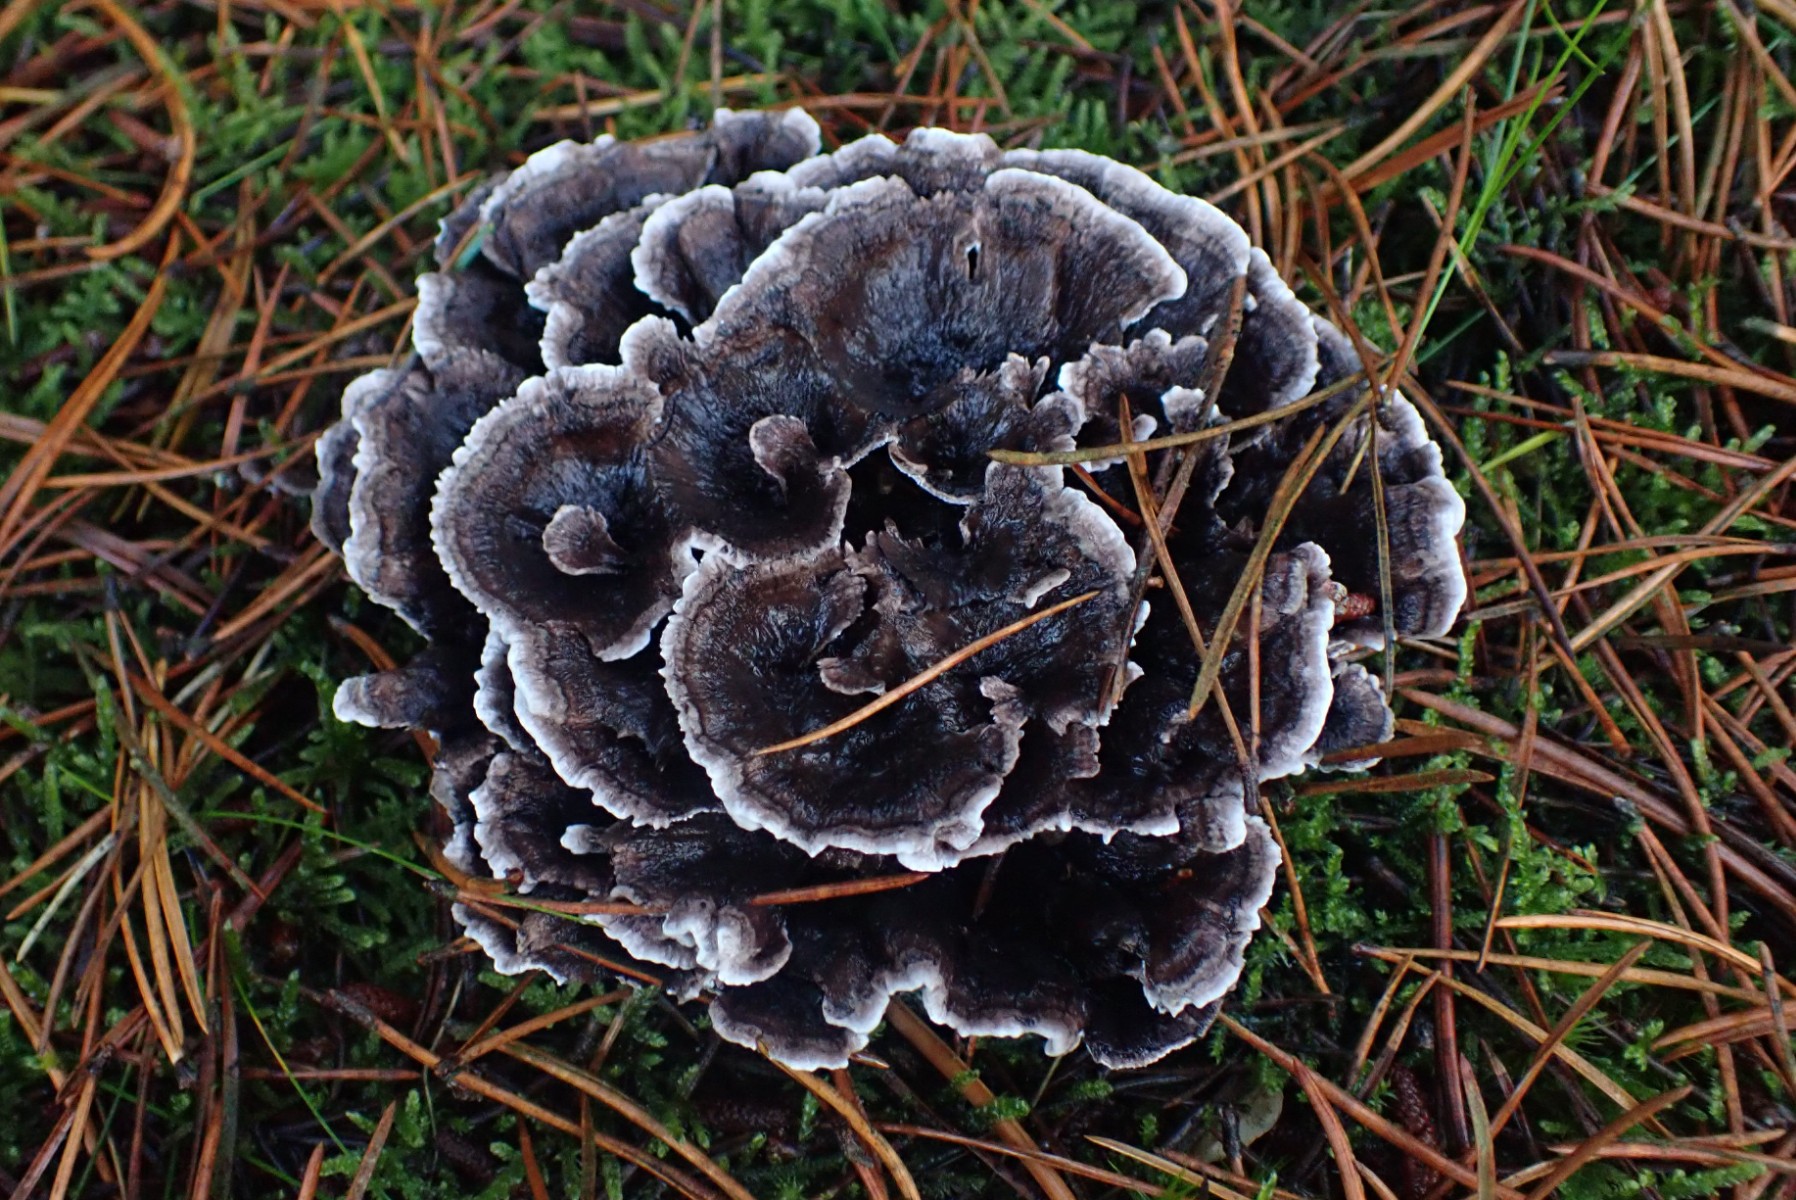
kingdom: Fungi
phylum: Basidiomycota
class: Agaricomycetes
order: Thelephorales
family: Thelephoraceae
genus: Phellodon
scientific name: Phellodon tomentosus
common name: vellugtende duftpigsvamp
